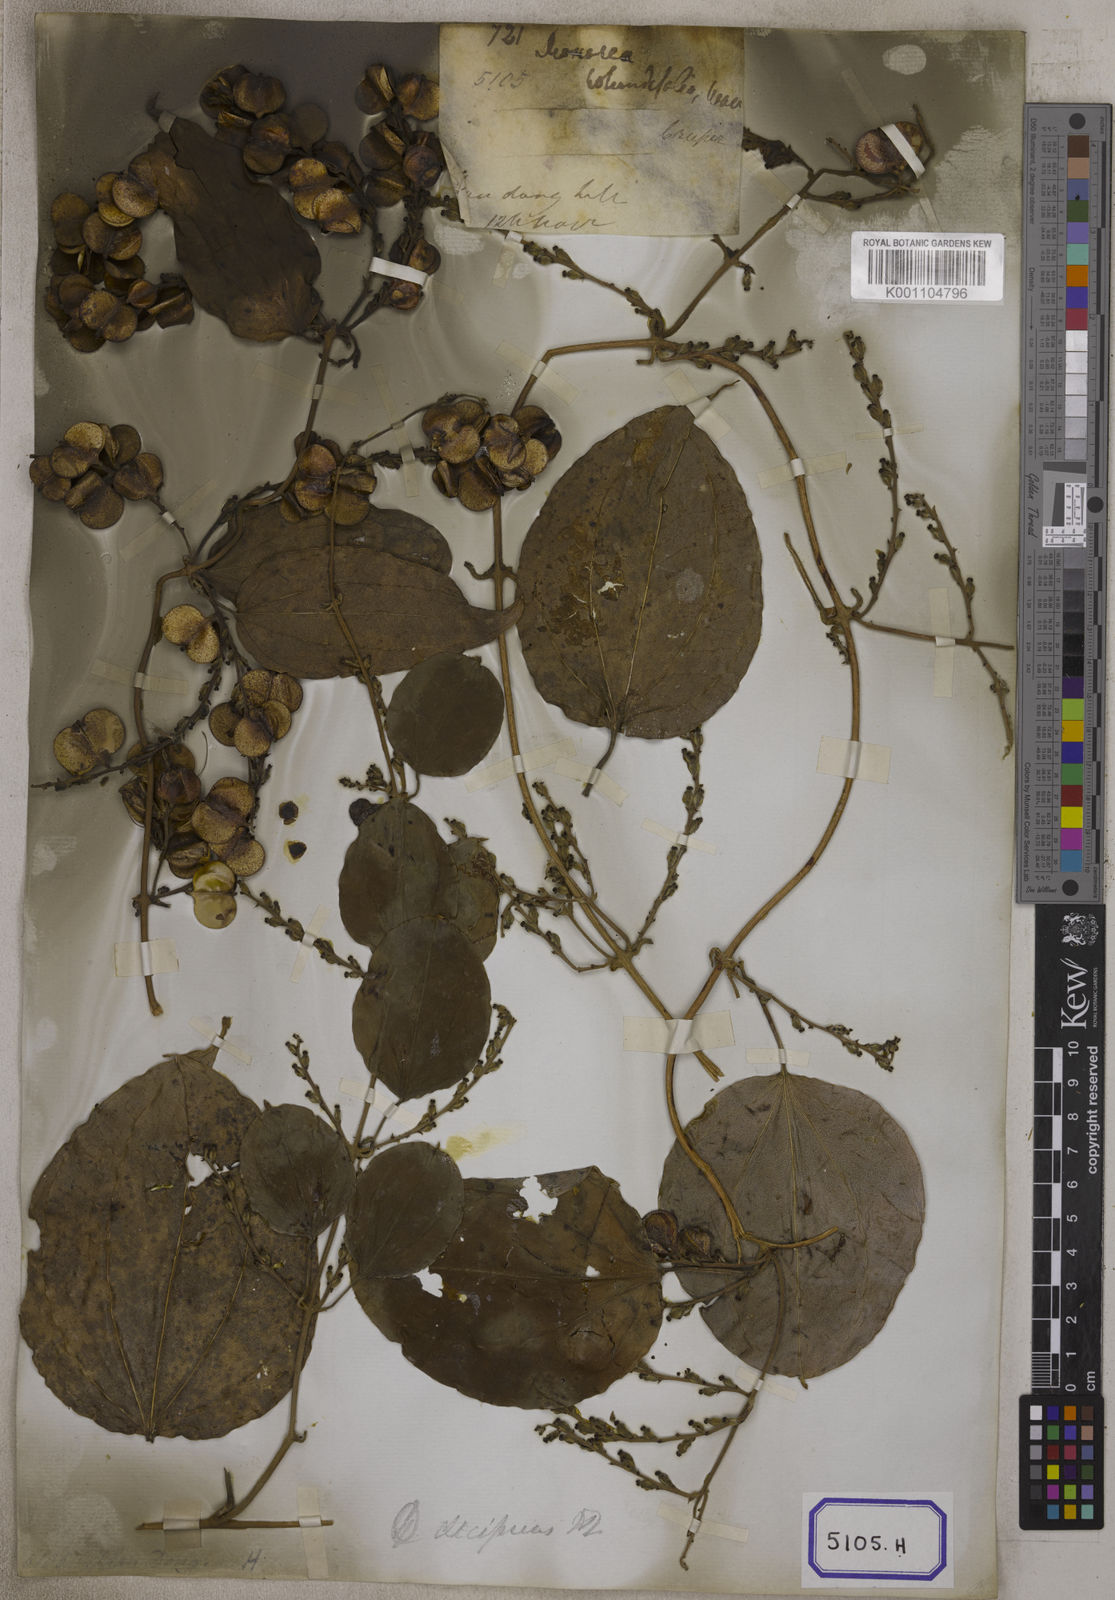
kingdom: Plantae
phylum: Tracheophyta
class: Liliopsida
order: Dioscoreales
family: Dioscoreaceae
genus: Dioscorea
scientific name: Dioscorea glabra
